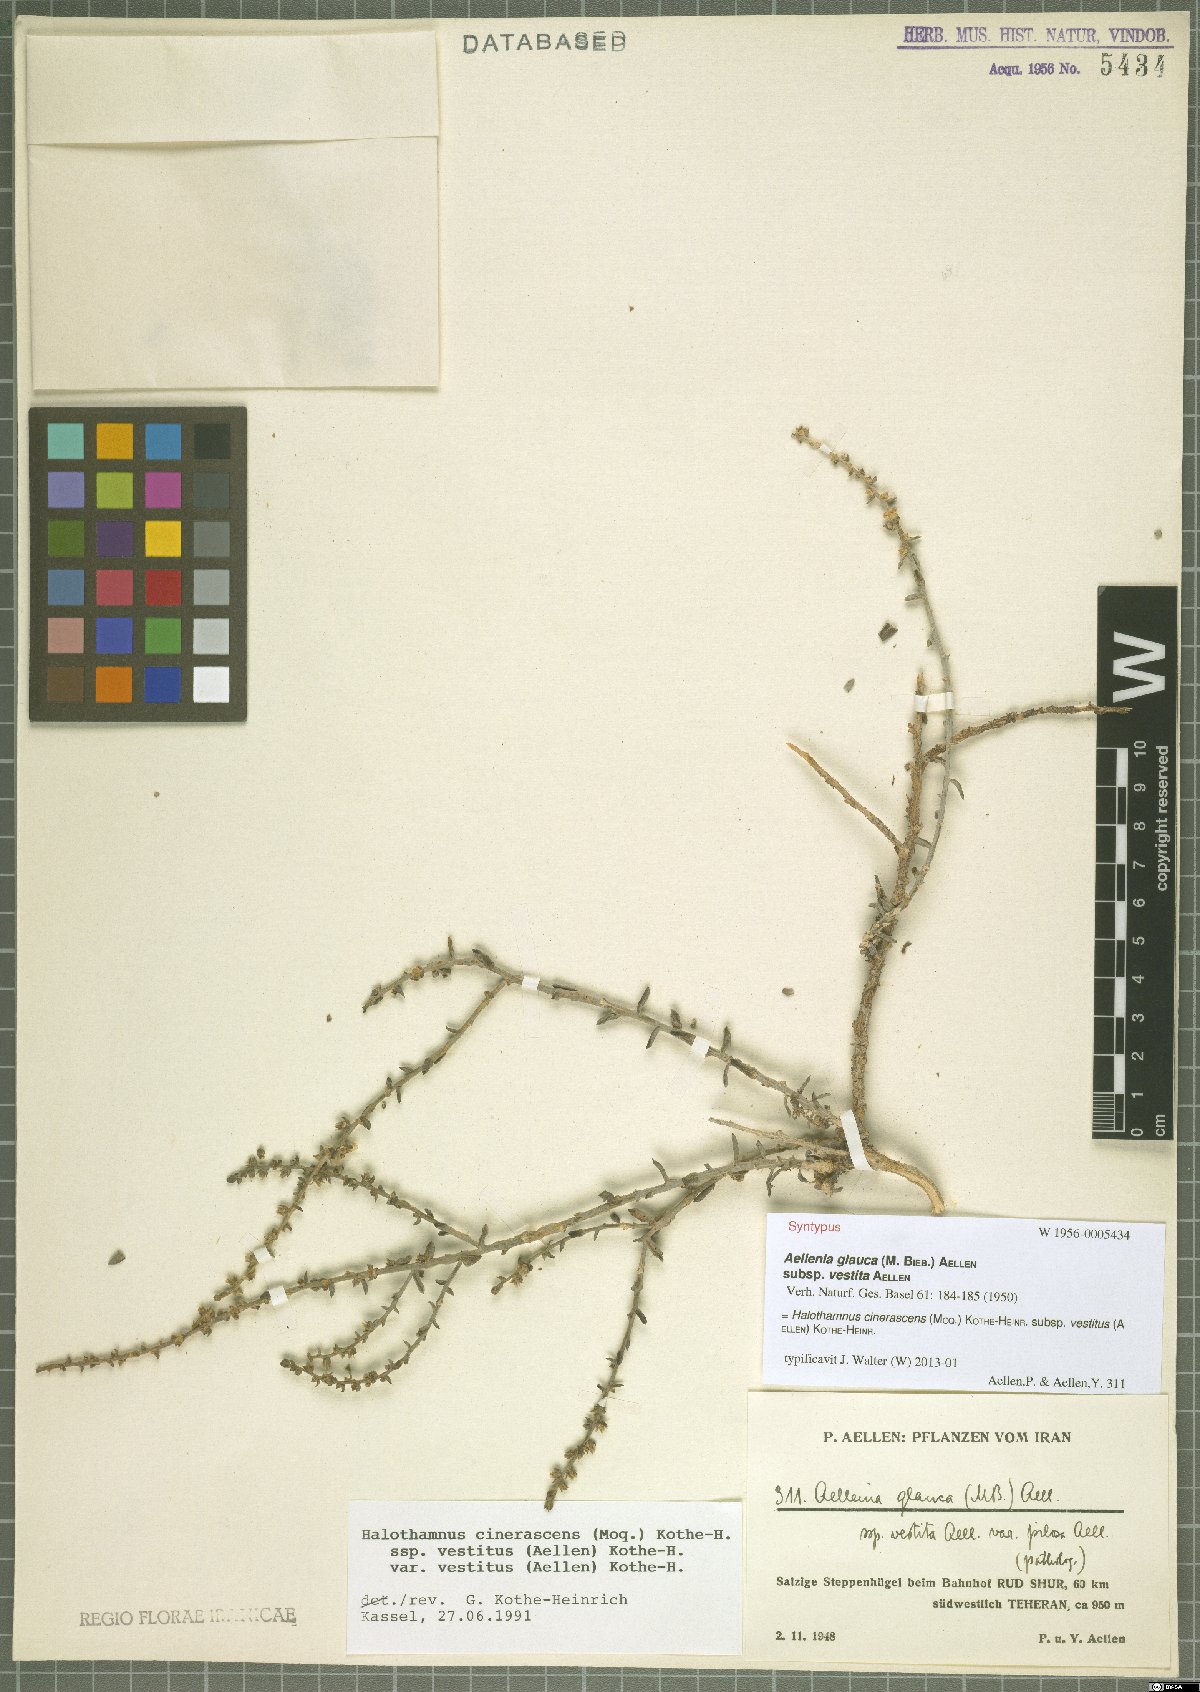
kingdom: Plantae
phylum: Tracheophyta
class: Magnoliopsida
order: Caryophyllales
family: Amaranthaceae
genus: Halothamnus
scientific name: Halothamnus cinerascens
